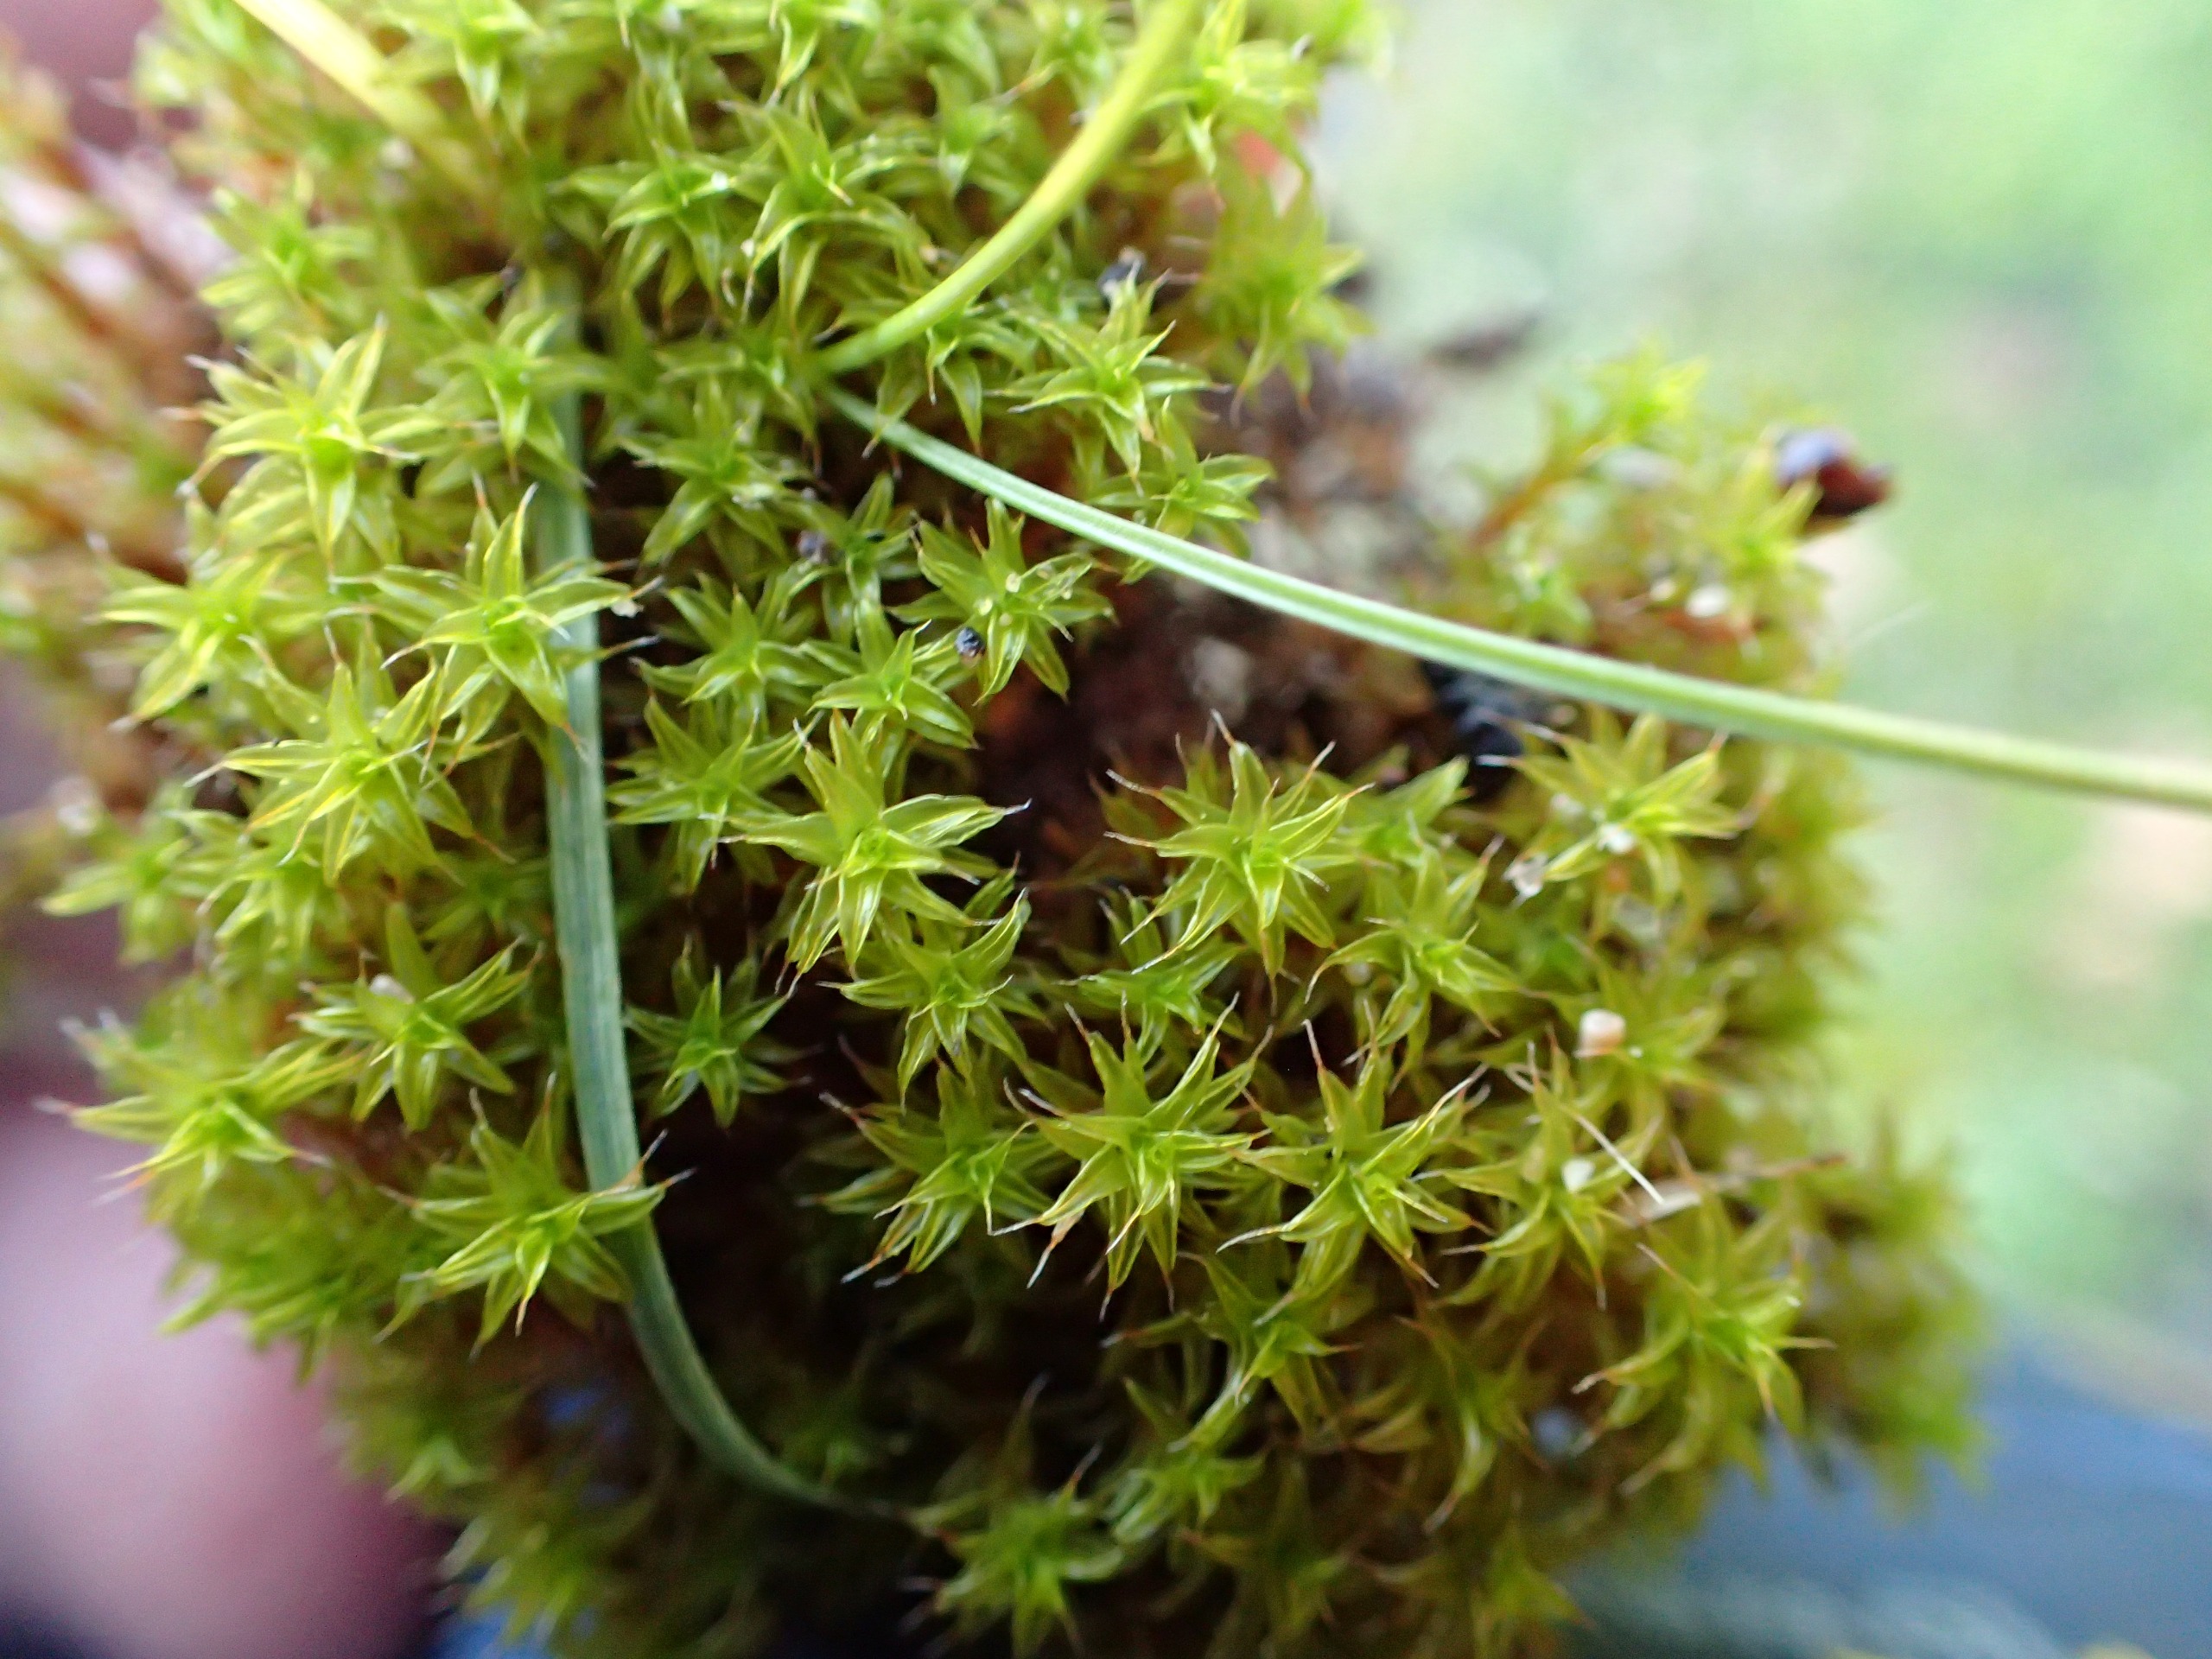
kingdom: Plantae
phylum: Bryophyta
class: Bryopsida
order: Pottiales
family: Pottiaceae
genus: Syntrichia
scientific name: Syntrichia ruralis
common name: Spidsbladet hårstjerne
